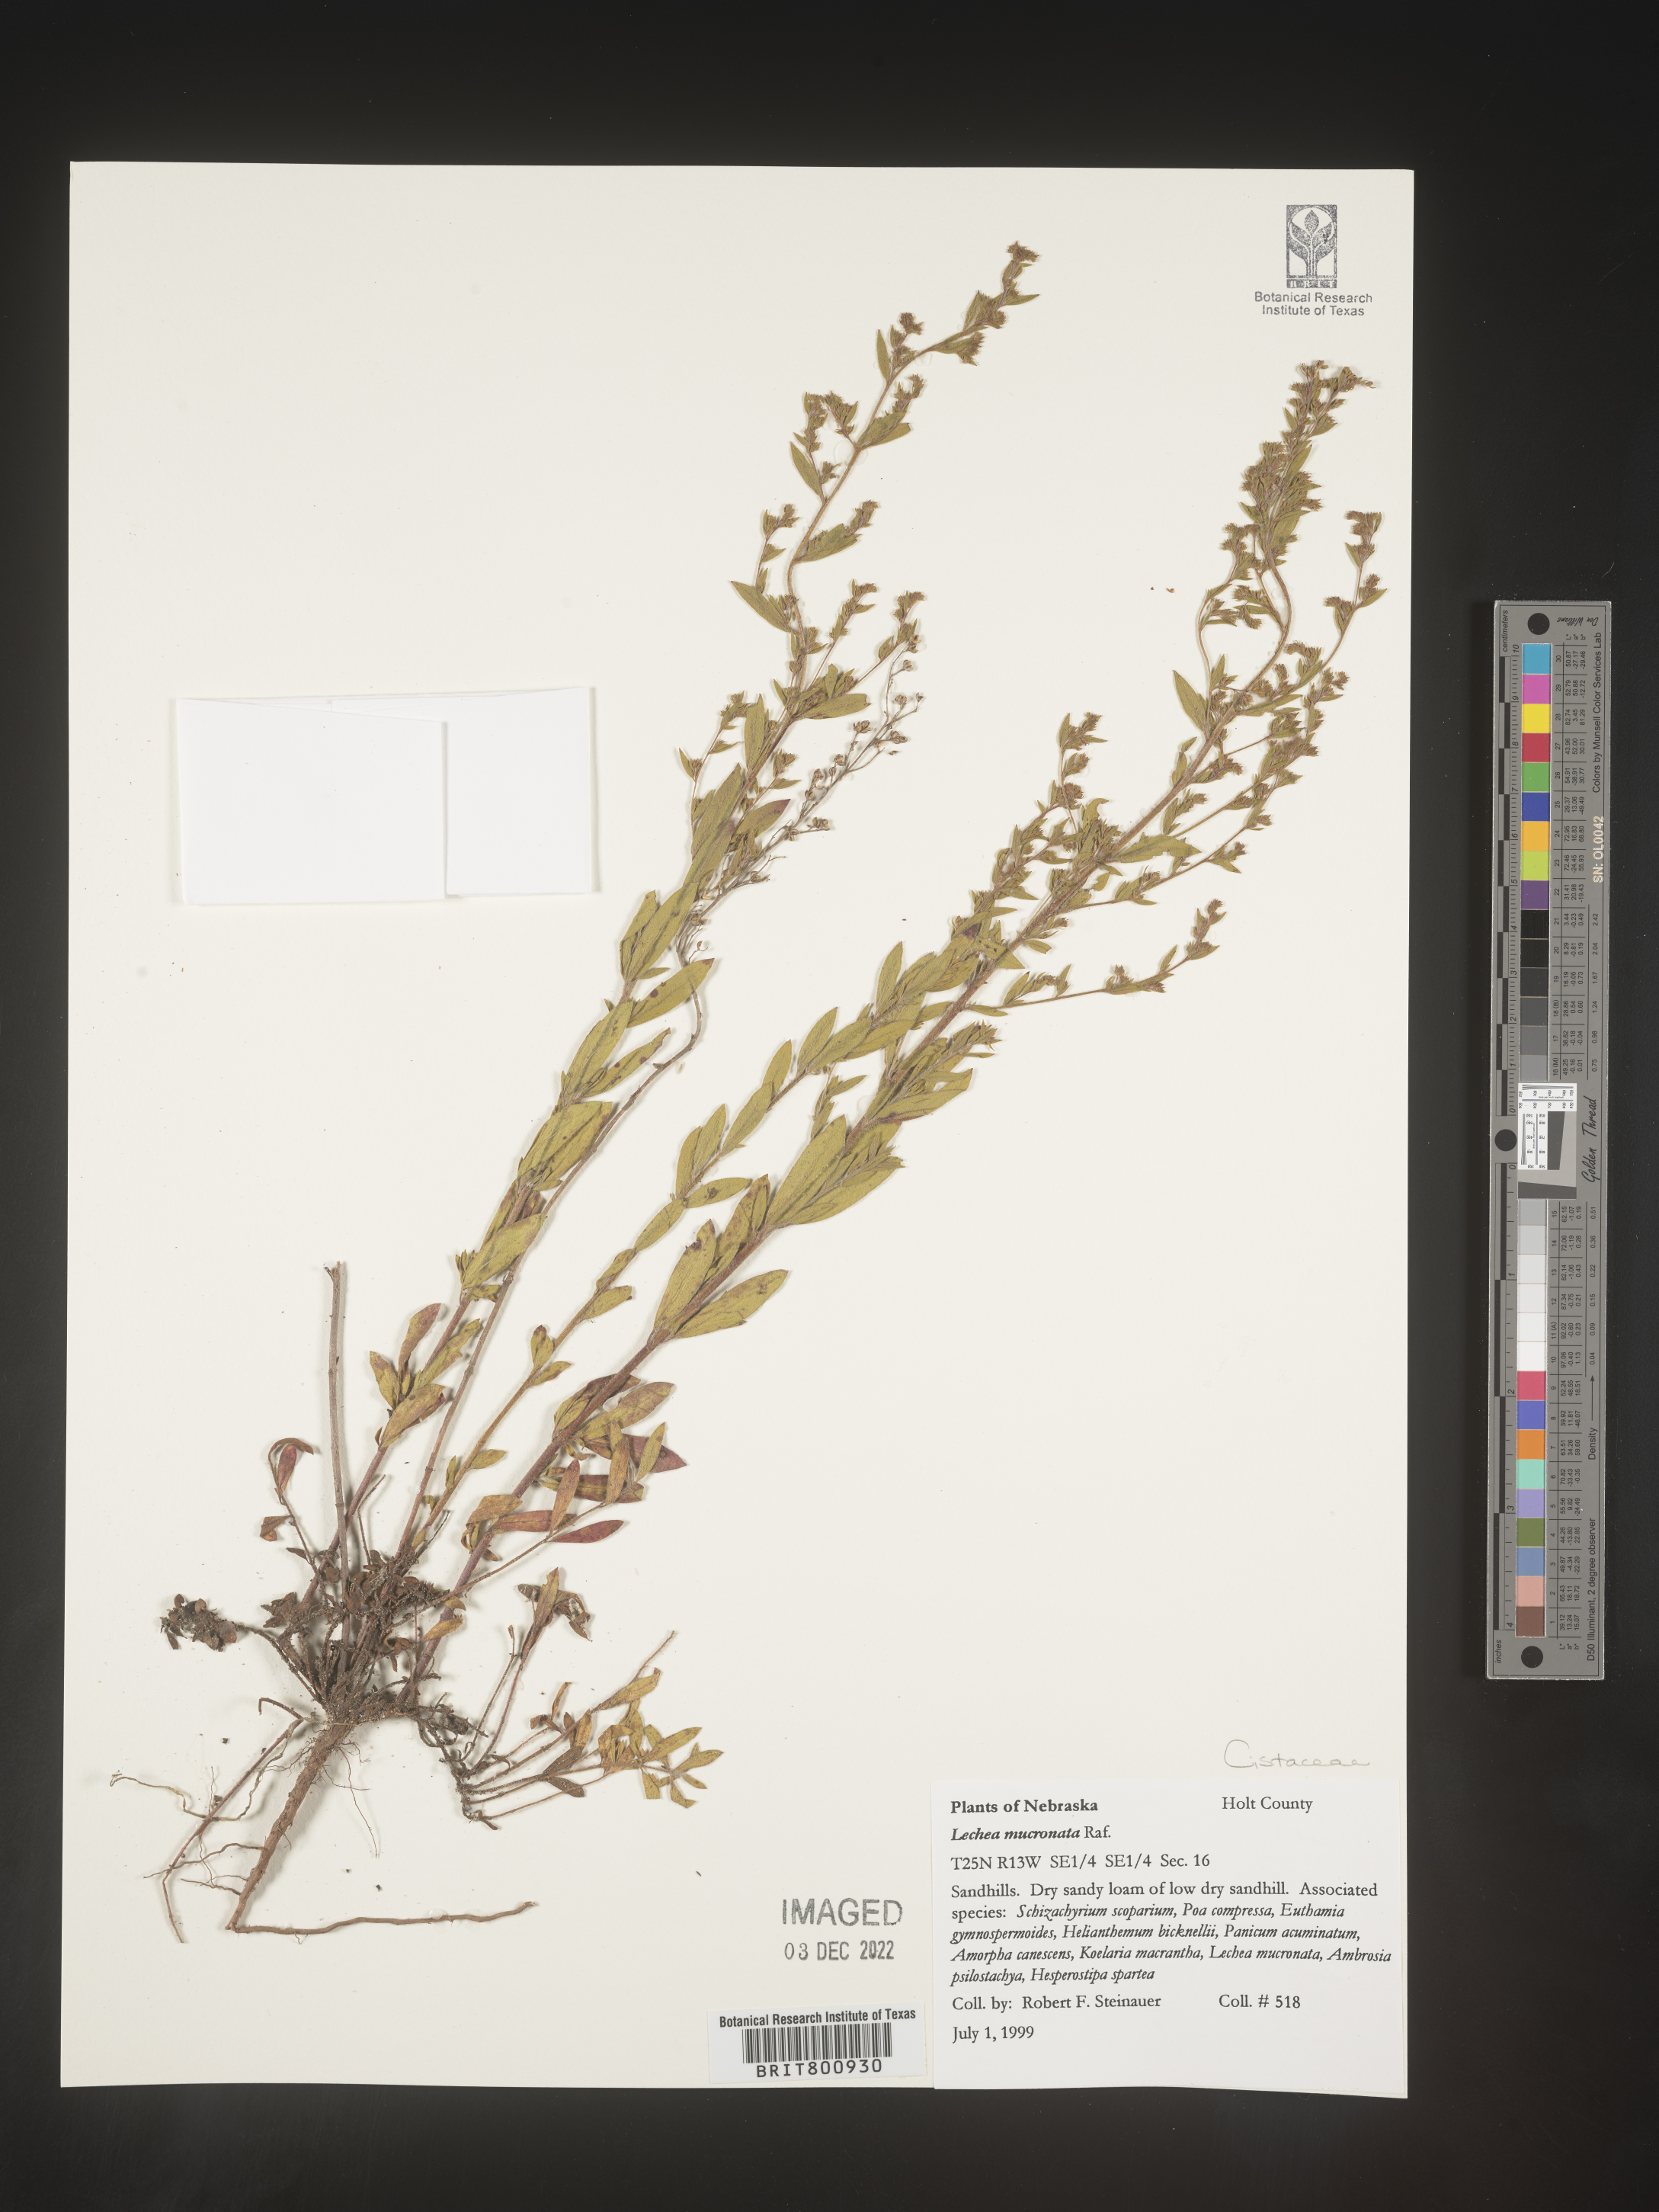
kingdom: Plantae
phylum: Tracheophyta
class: Magnoliopsida
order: Malvales
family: Cistaceae
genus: Lechea
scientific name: Lechea mucronata
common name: Hairy pinweed
